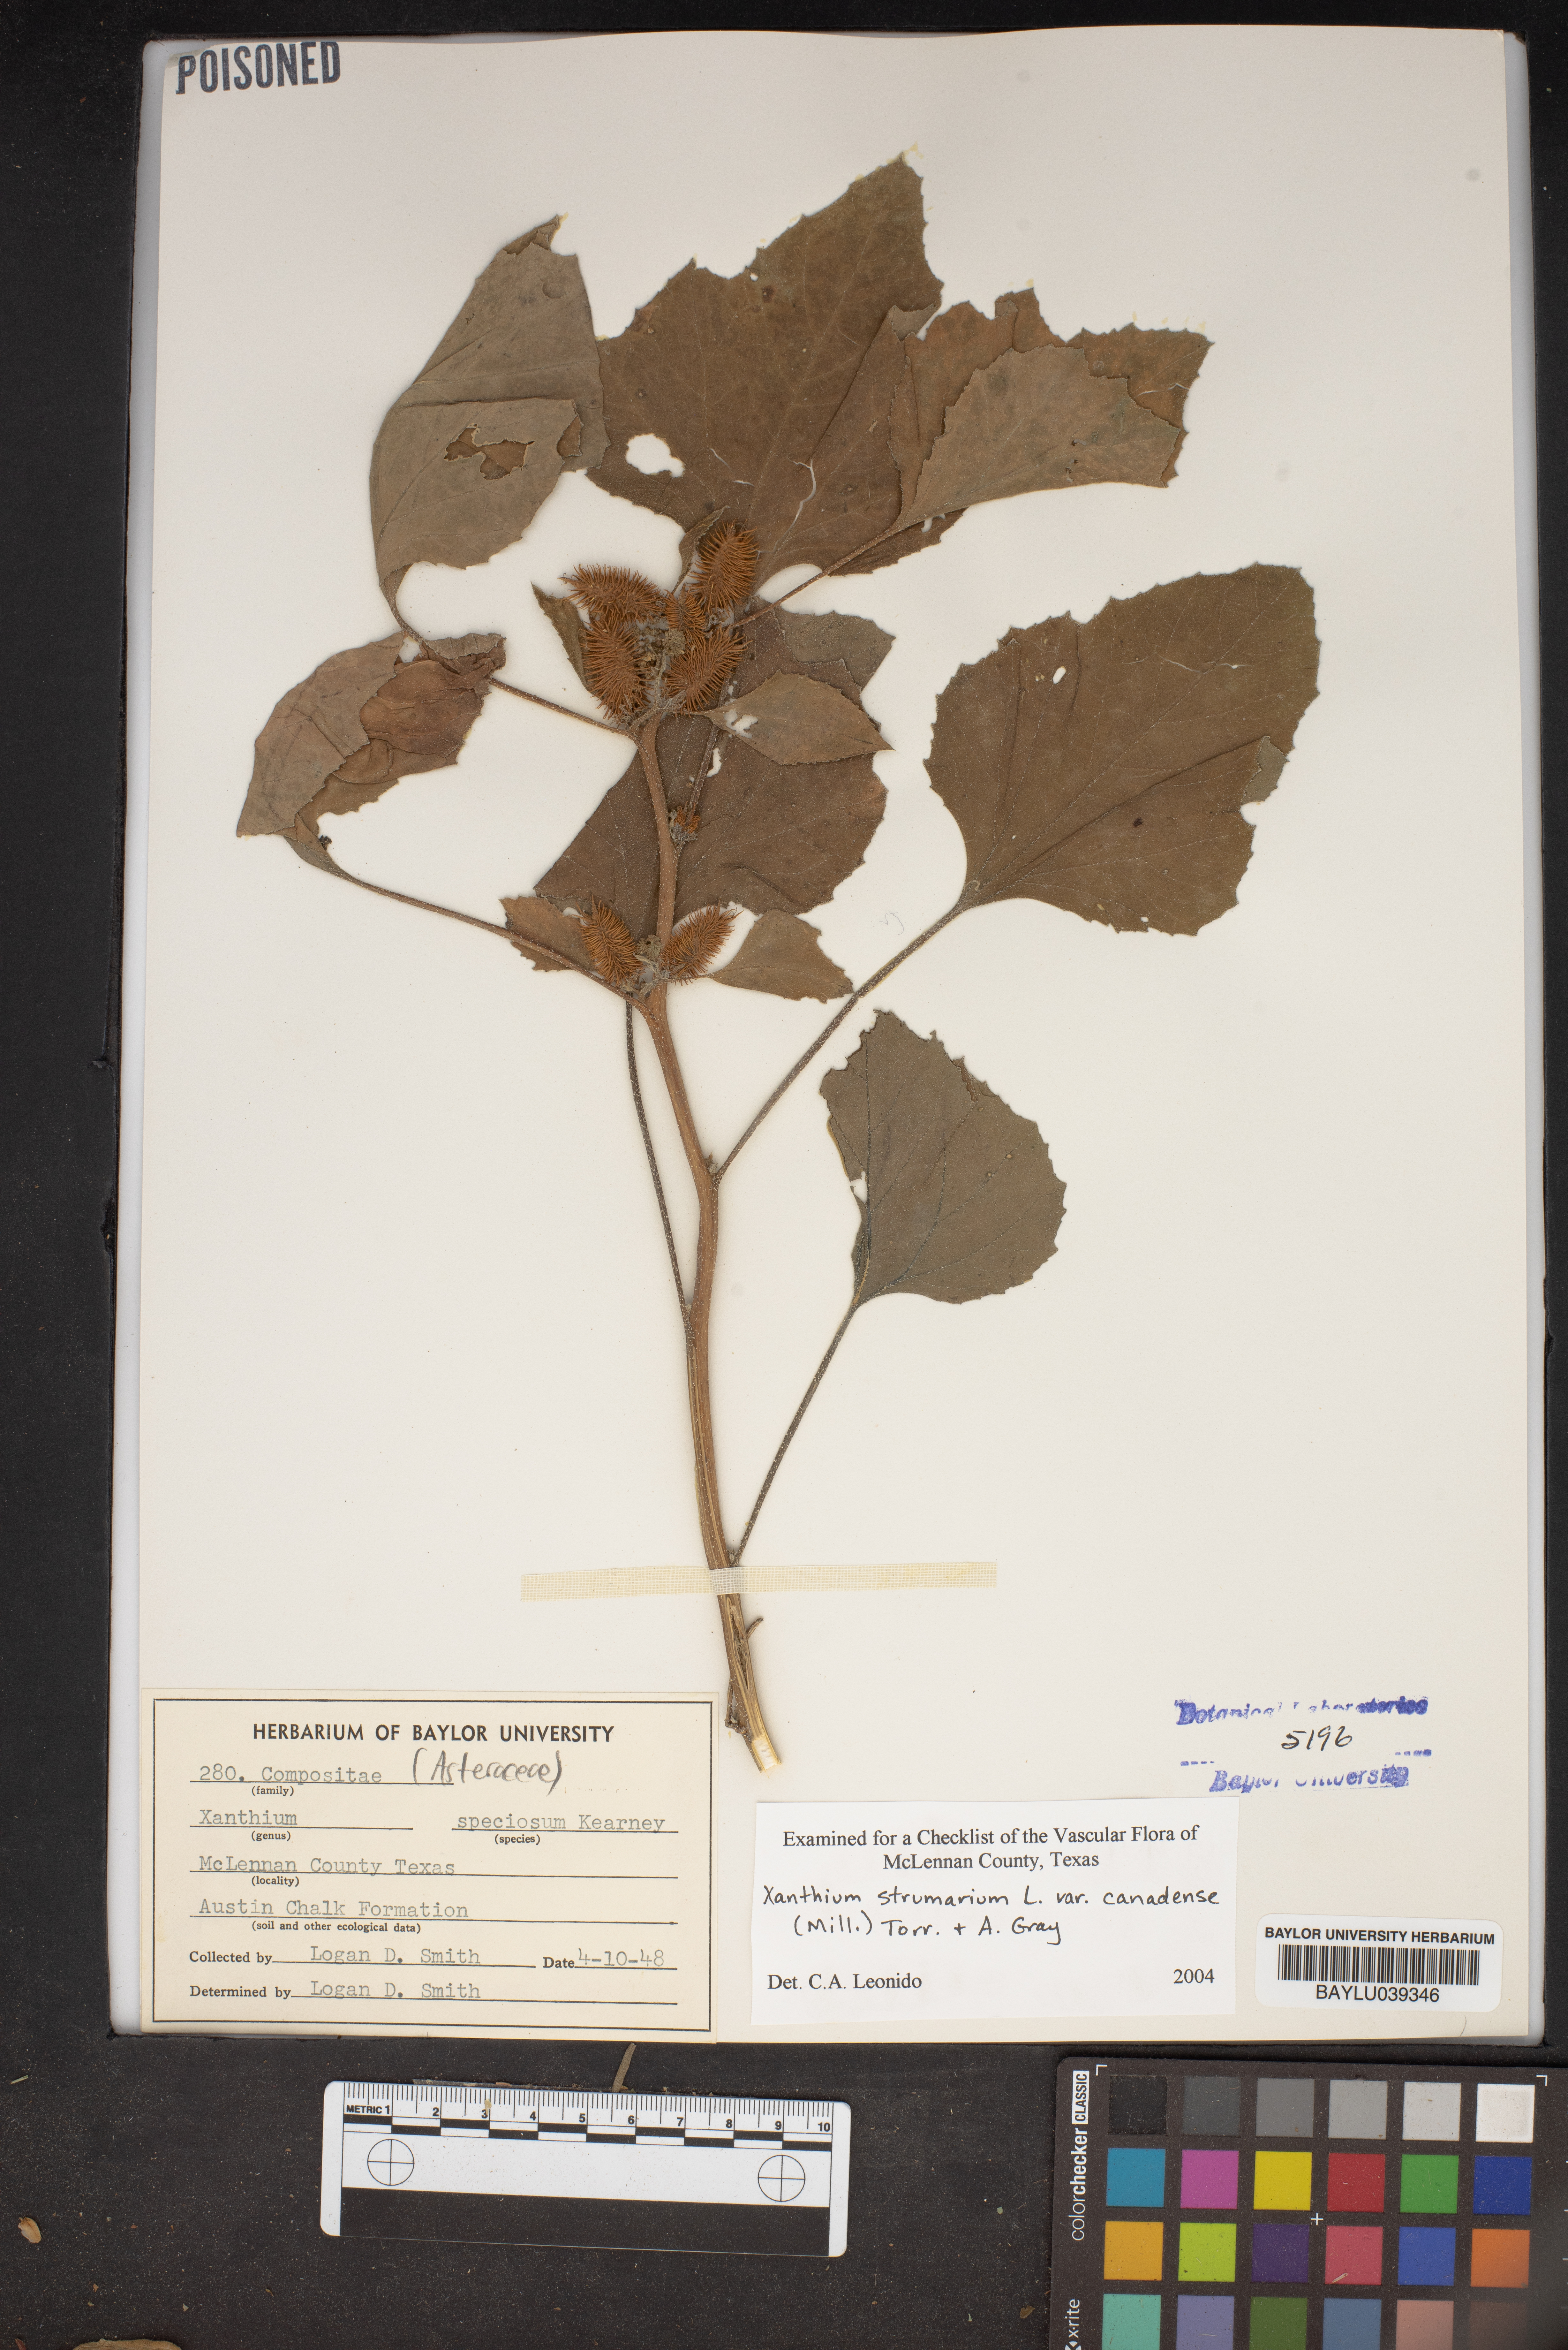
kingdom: Plantae
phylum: Tracheophyta
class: Magnoliopsida
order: Asterales
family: Asteraceae
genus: Xanthium
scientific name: Xanthium orientale
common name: Californian burr
